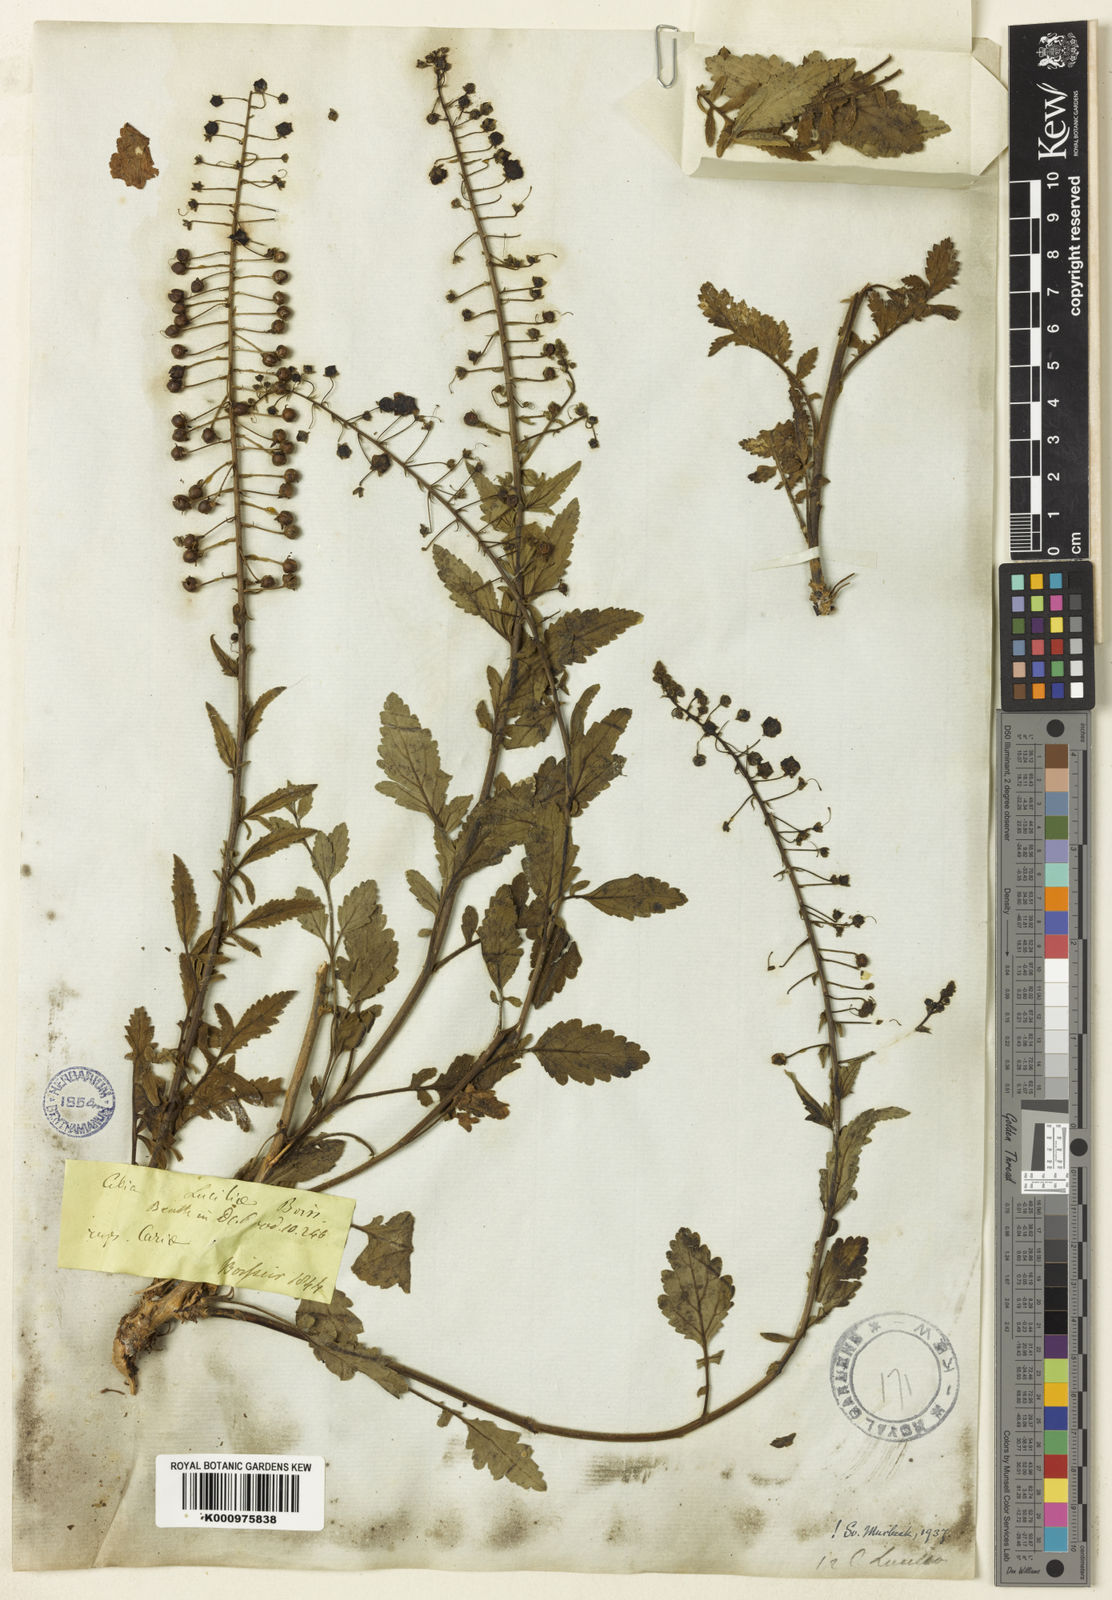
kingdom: Plantae
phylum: Tracheophyta
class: Magnoliopsida
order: Lamiales
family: Scrophulariaceae
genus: Verbascum
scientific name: Verbascum luciliae
